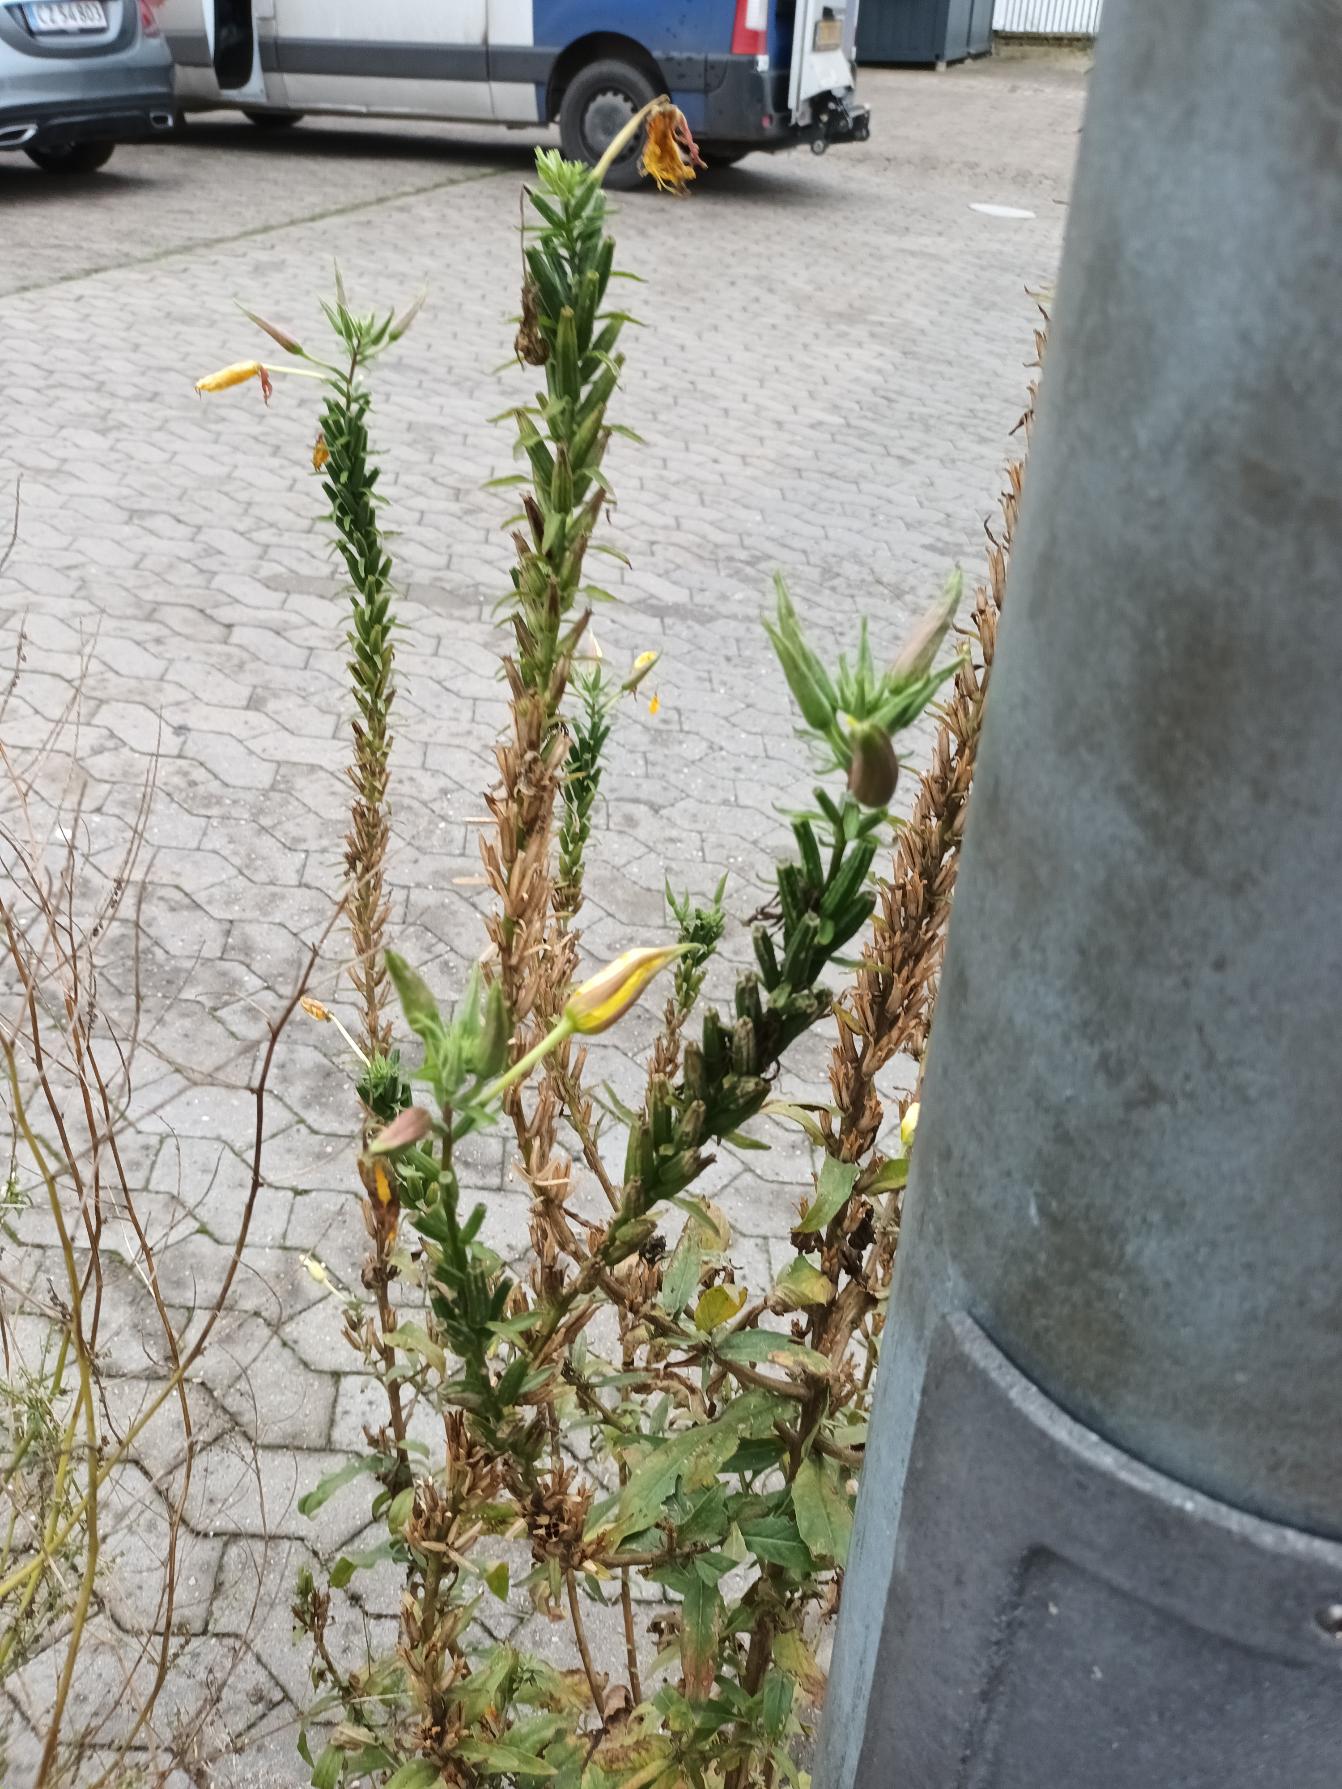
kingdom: Plantae
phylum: Tracheophyta
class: Magnoliopsida
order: Myrtales
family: Onagraceae
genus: Oenothera
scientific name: Oenothera glazioviana
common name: Kæmpe-natlys
